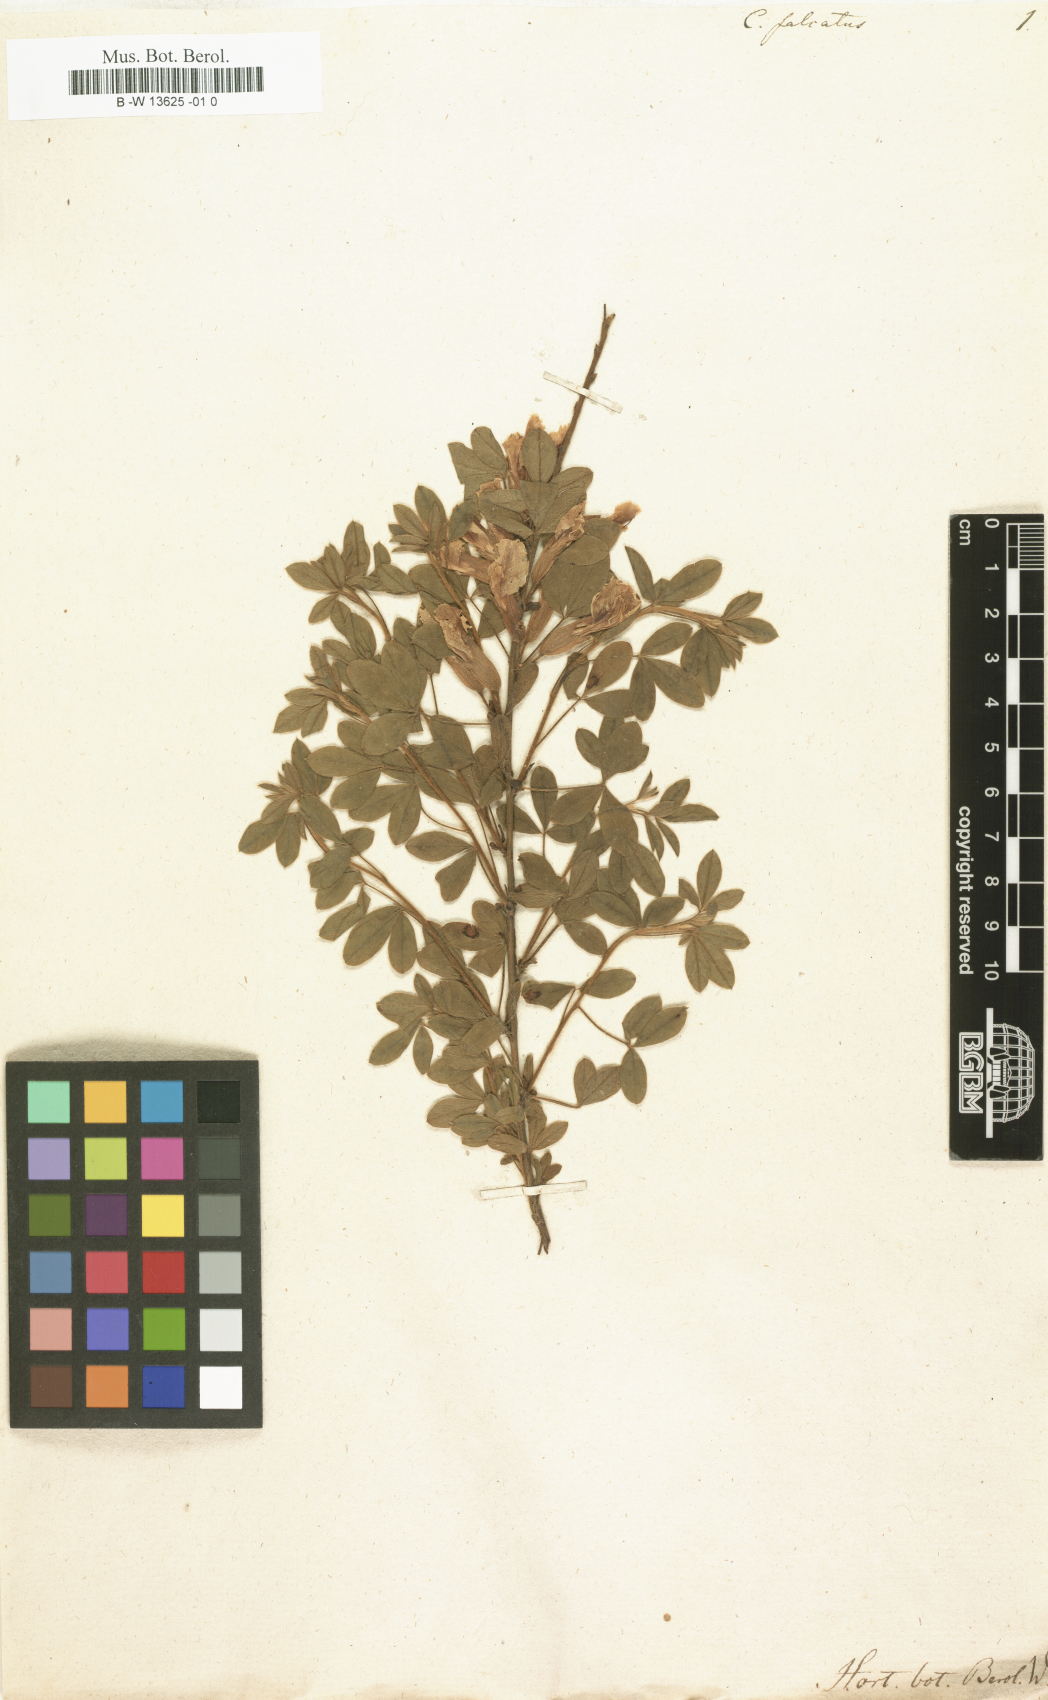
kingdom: Plantae
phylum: Tracheophyta
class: Magnoliopsida
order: Fabales
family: Fabaceae
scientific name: Fabaceae
